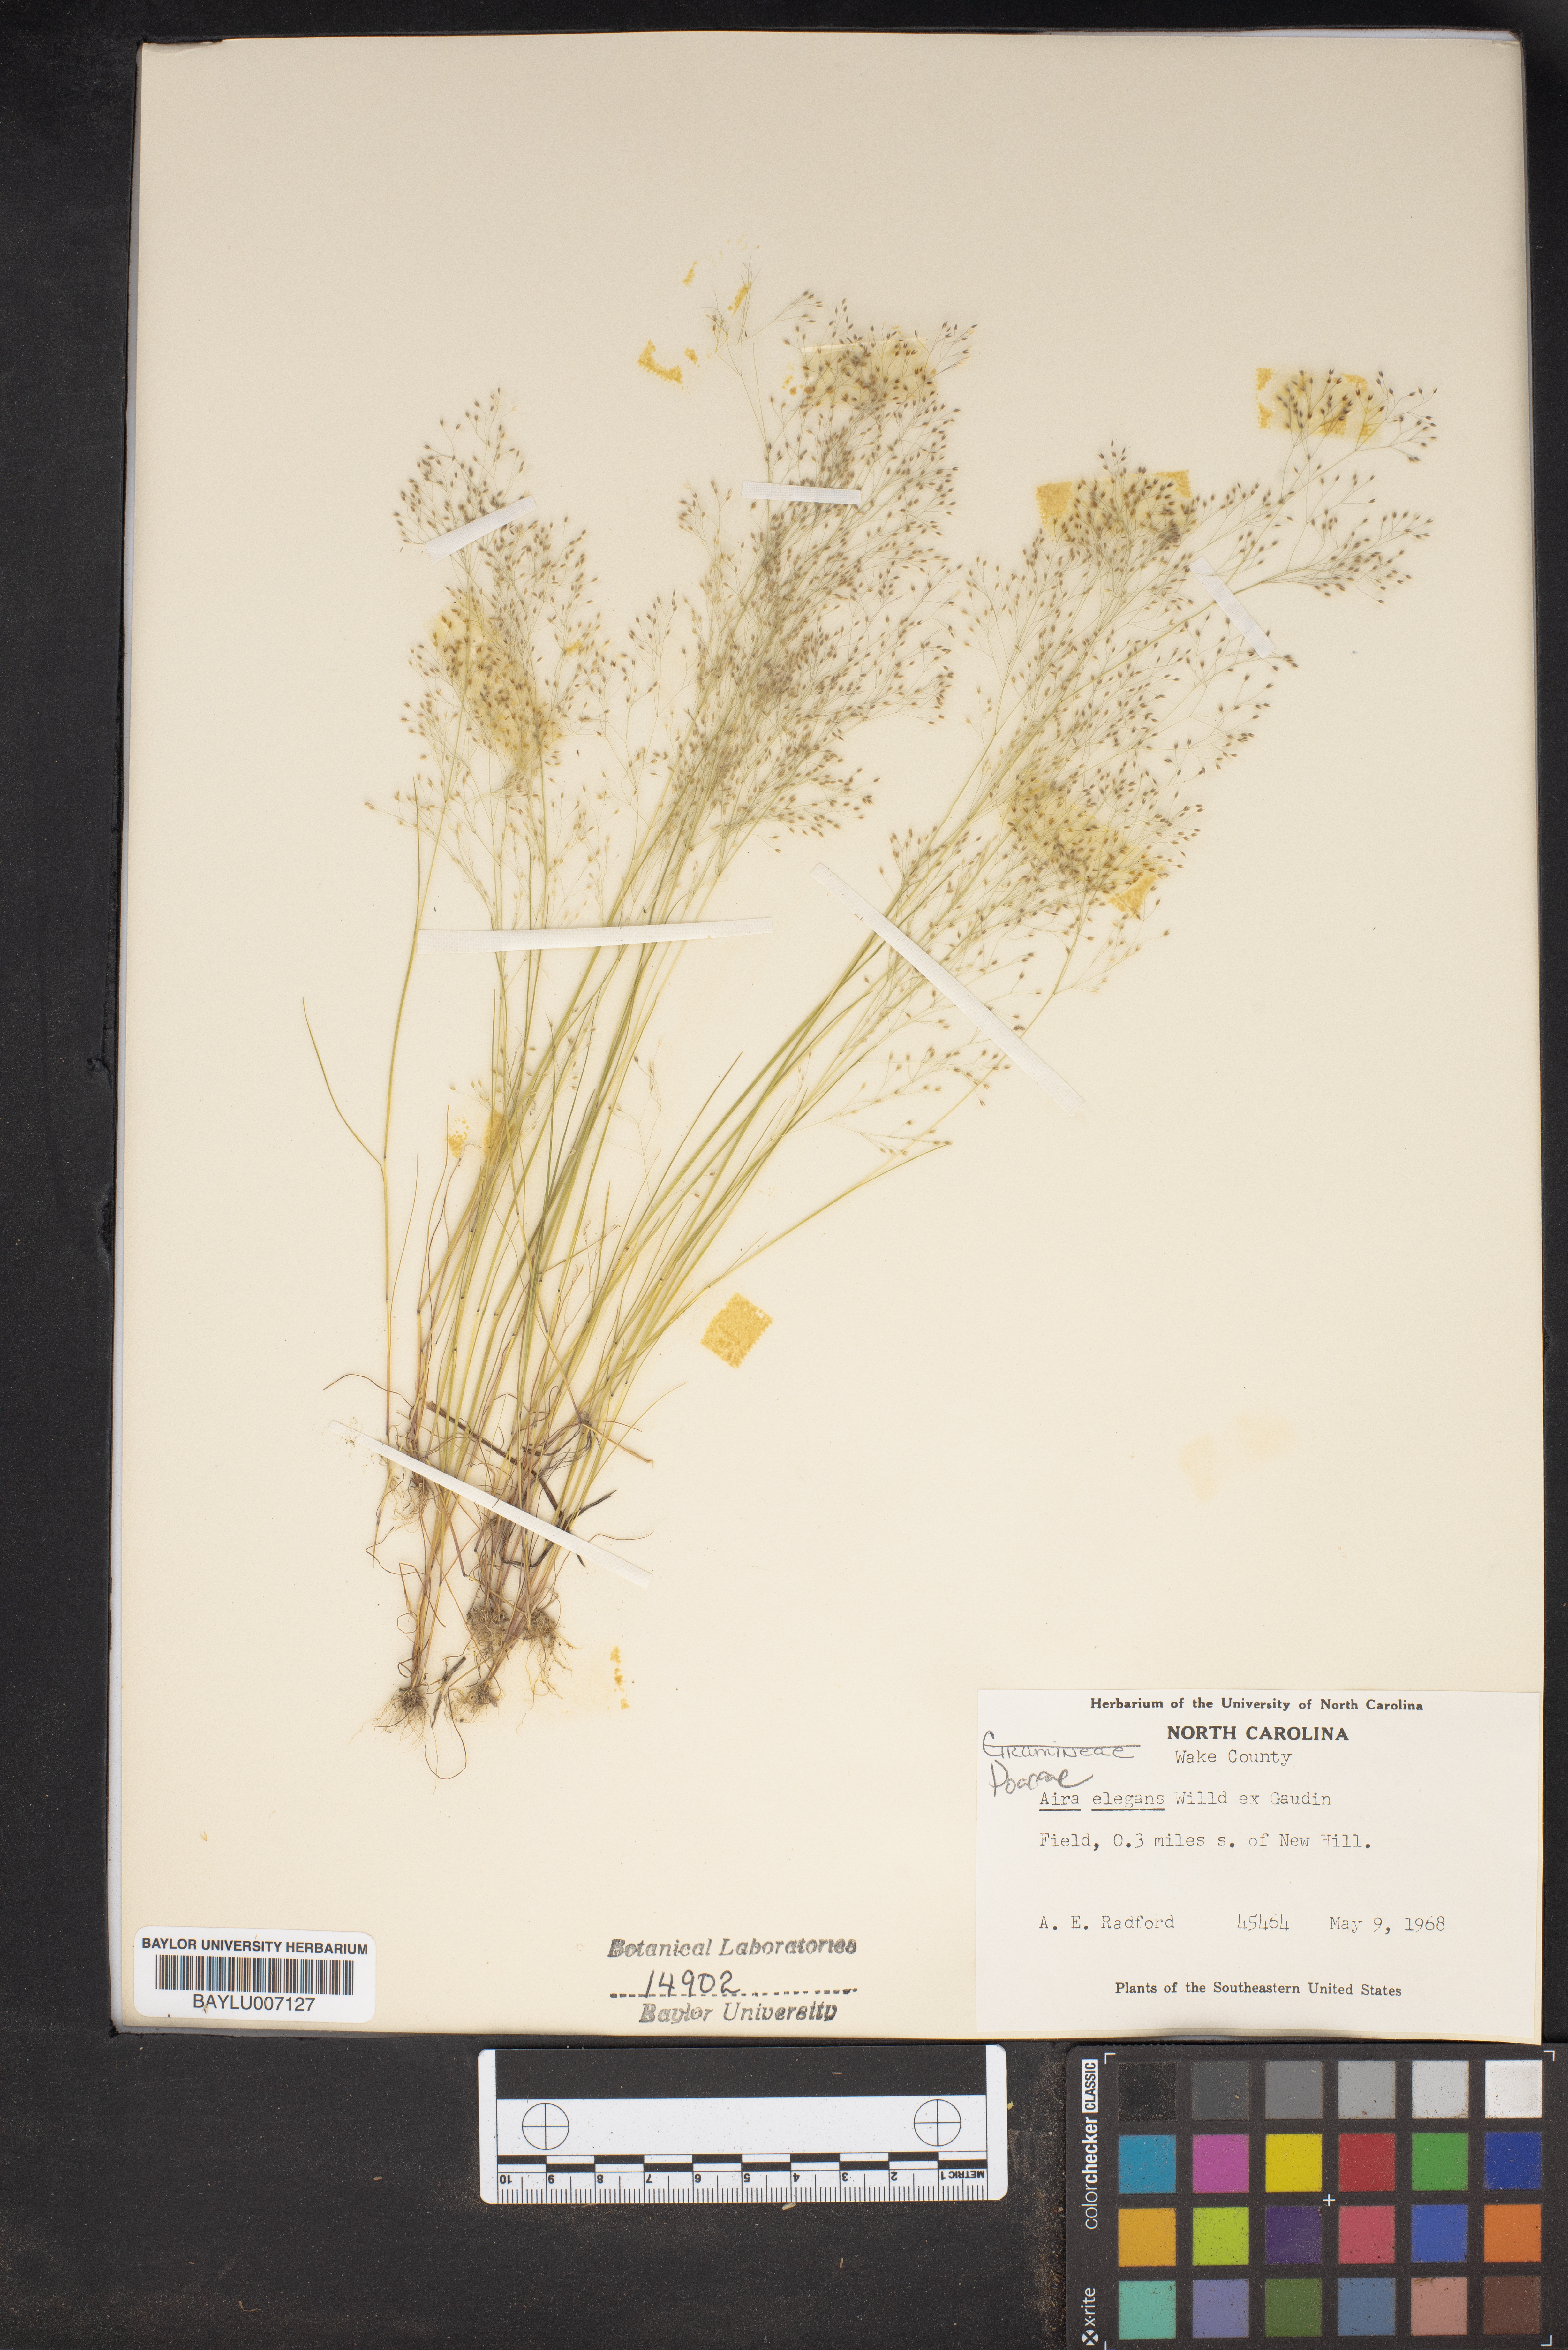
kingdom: Plantae
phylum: Tracheophyta
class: Liliopsida
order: Poales
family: Poaceae
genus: Aira
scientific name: Aira elegans
